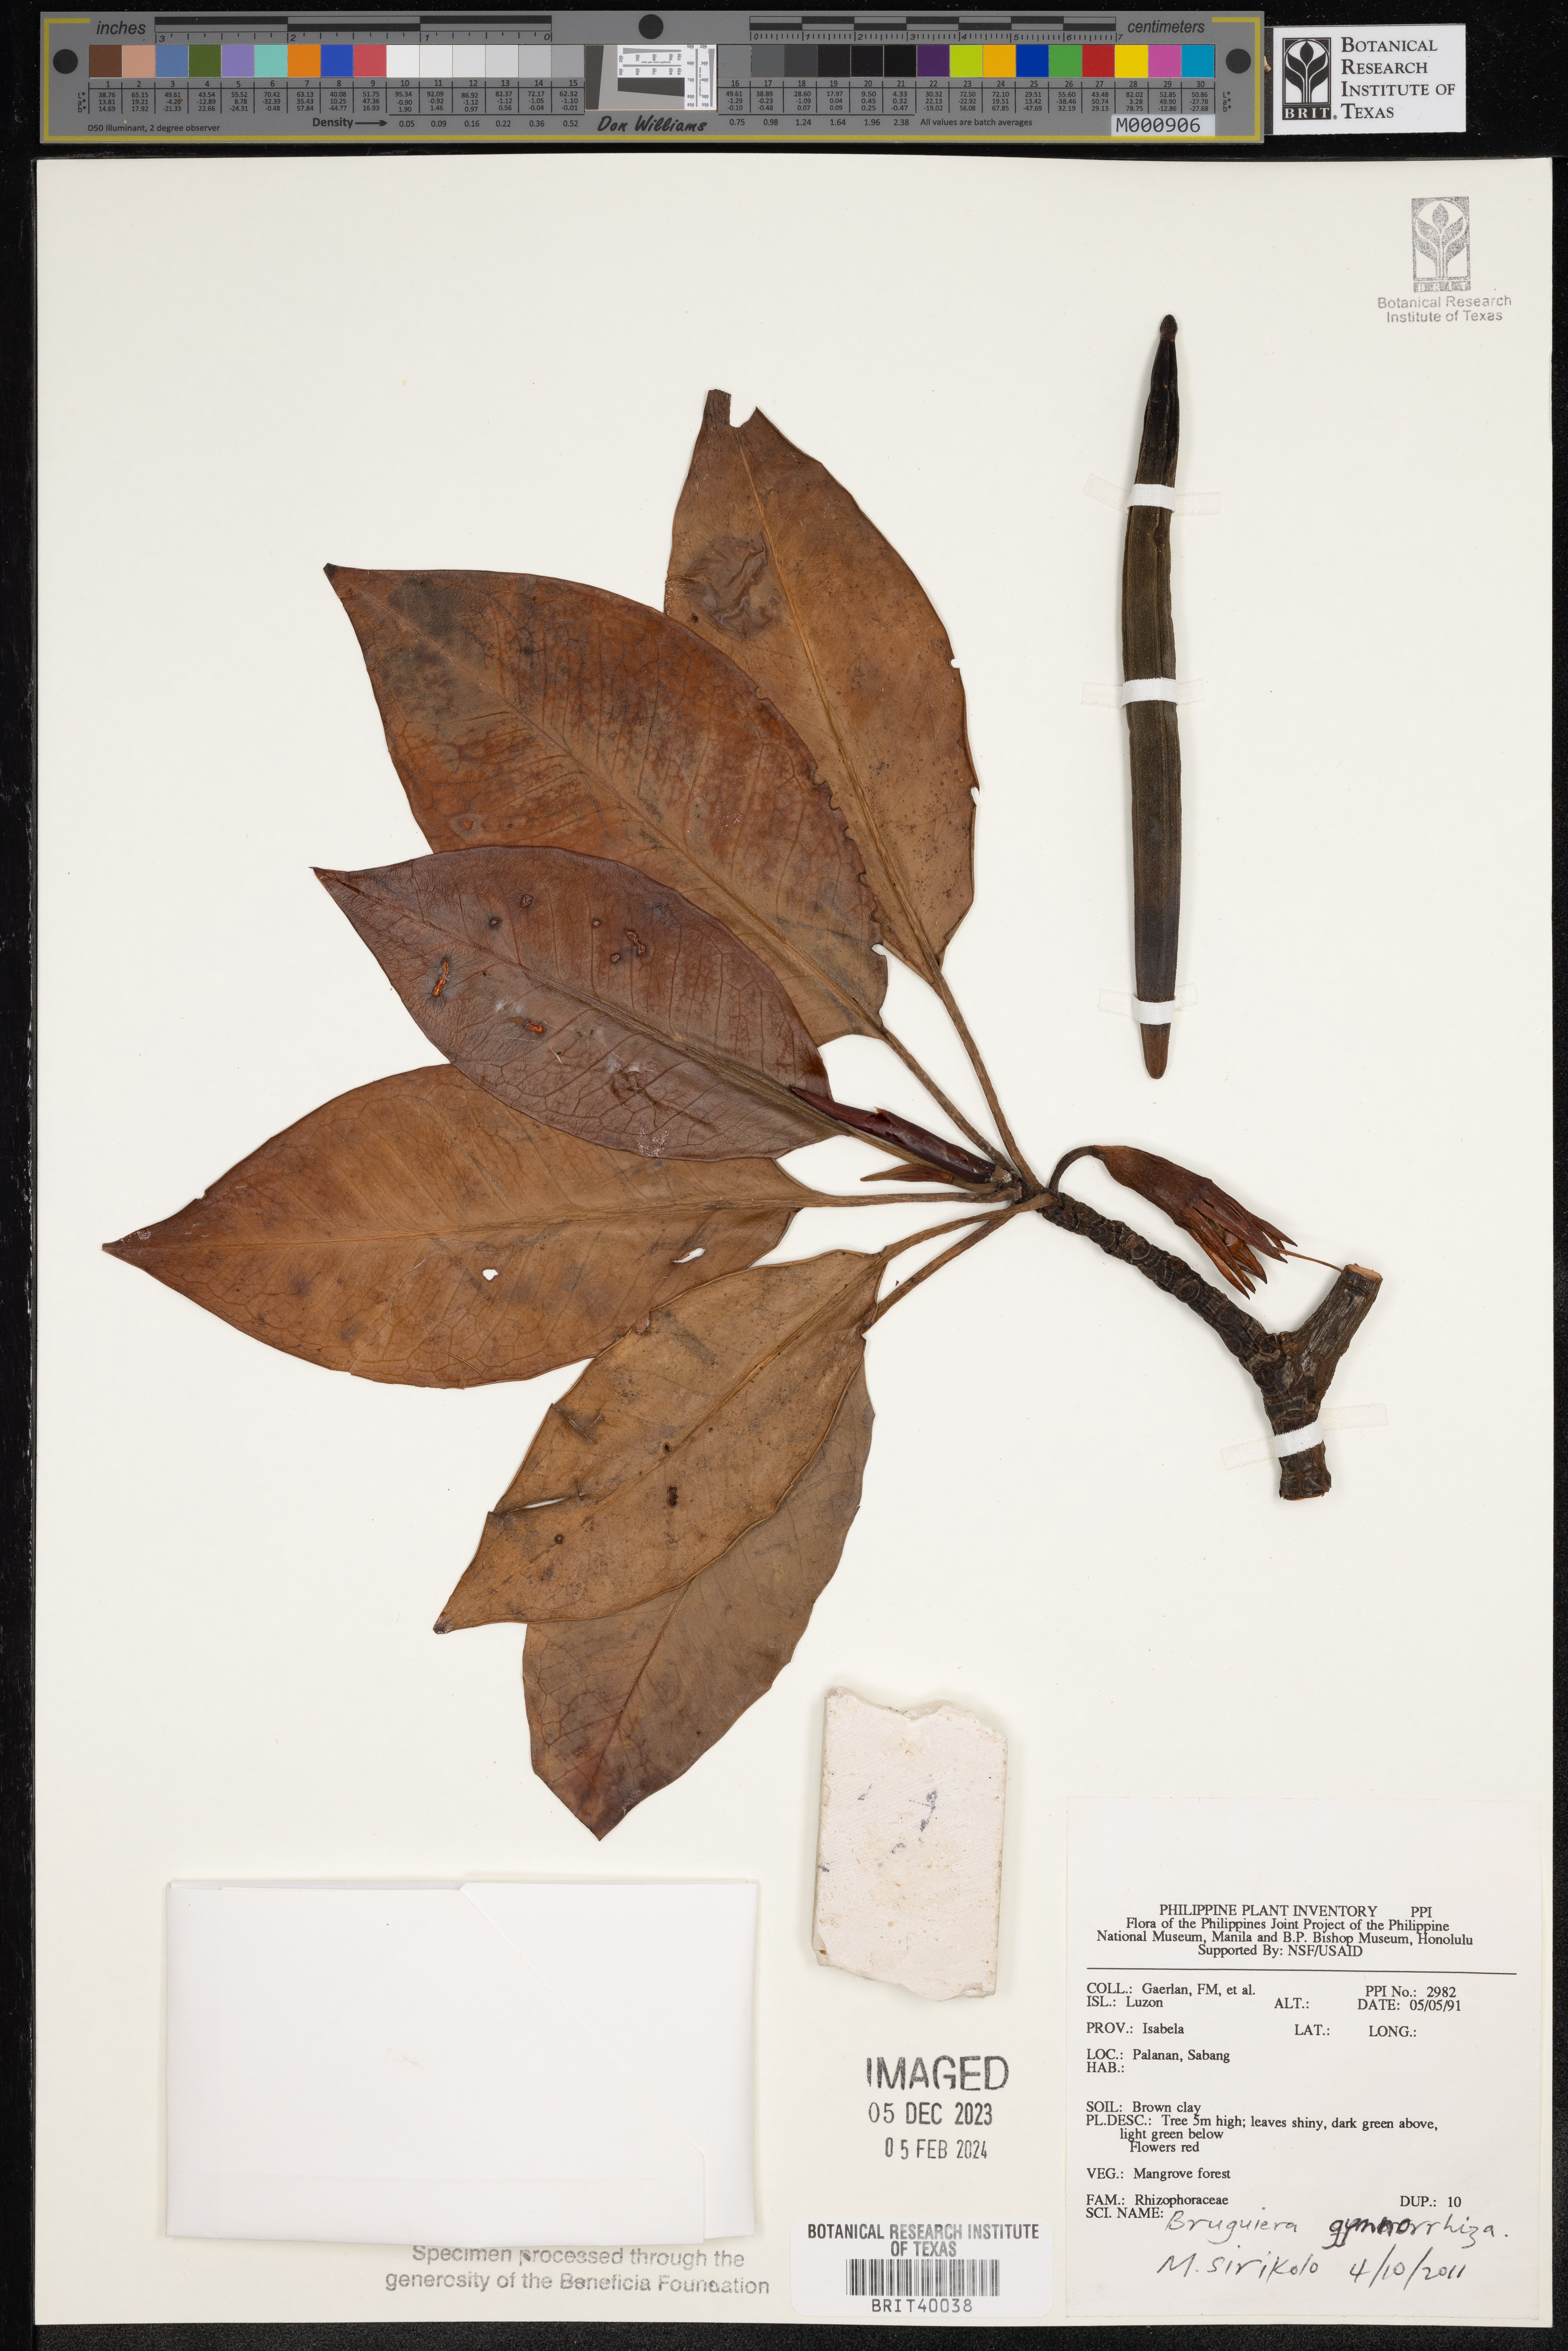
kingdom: Plantae
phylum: Tracheophyta
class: Magnoliopsida
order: Malpighiales
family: Rhizophoraceae
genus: Bruguiera
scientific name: Bruguiera gymnorhiza
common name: Oriental mangrove
